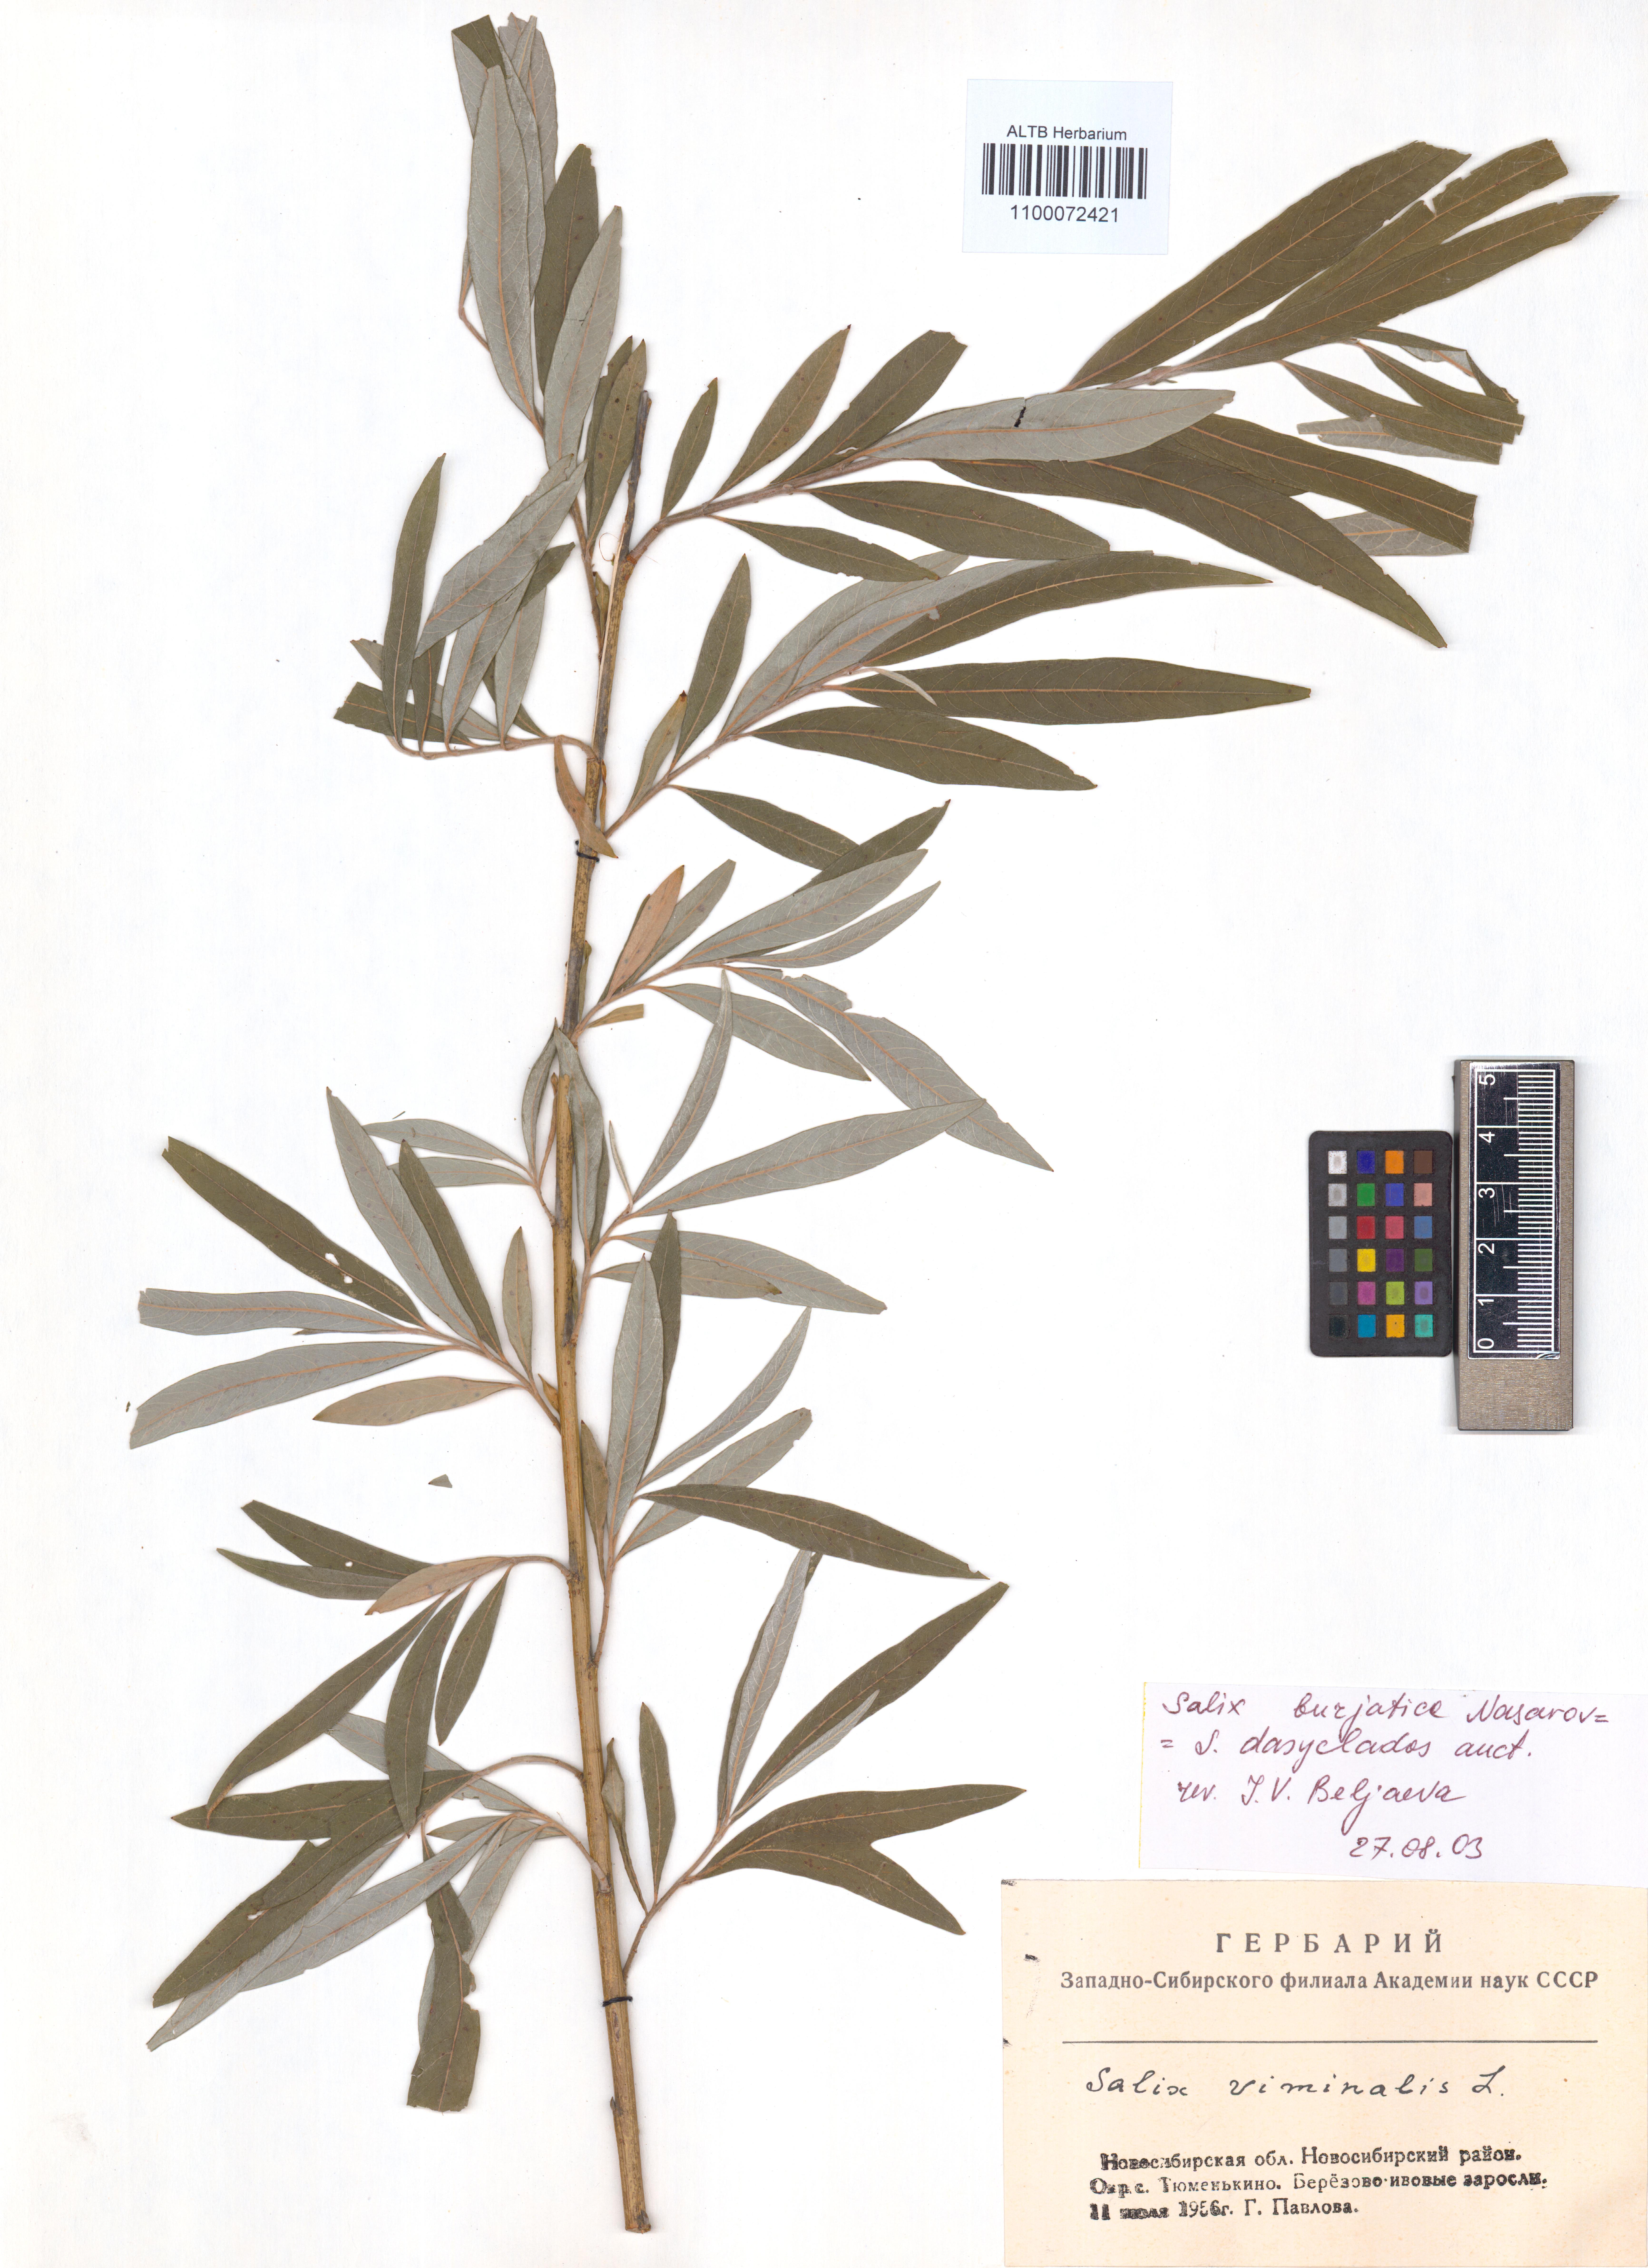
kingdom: Plantae
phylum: Tracheophyta
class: Magnoliopsida
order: Malpighiales
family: Salicaceae
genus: Salix
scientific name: Salix gmelinii
